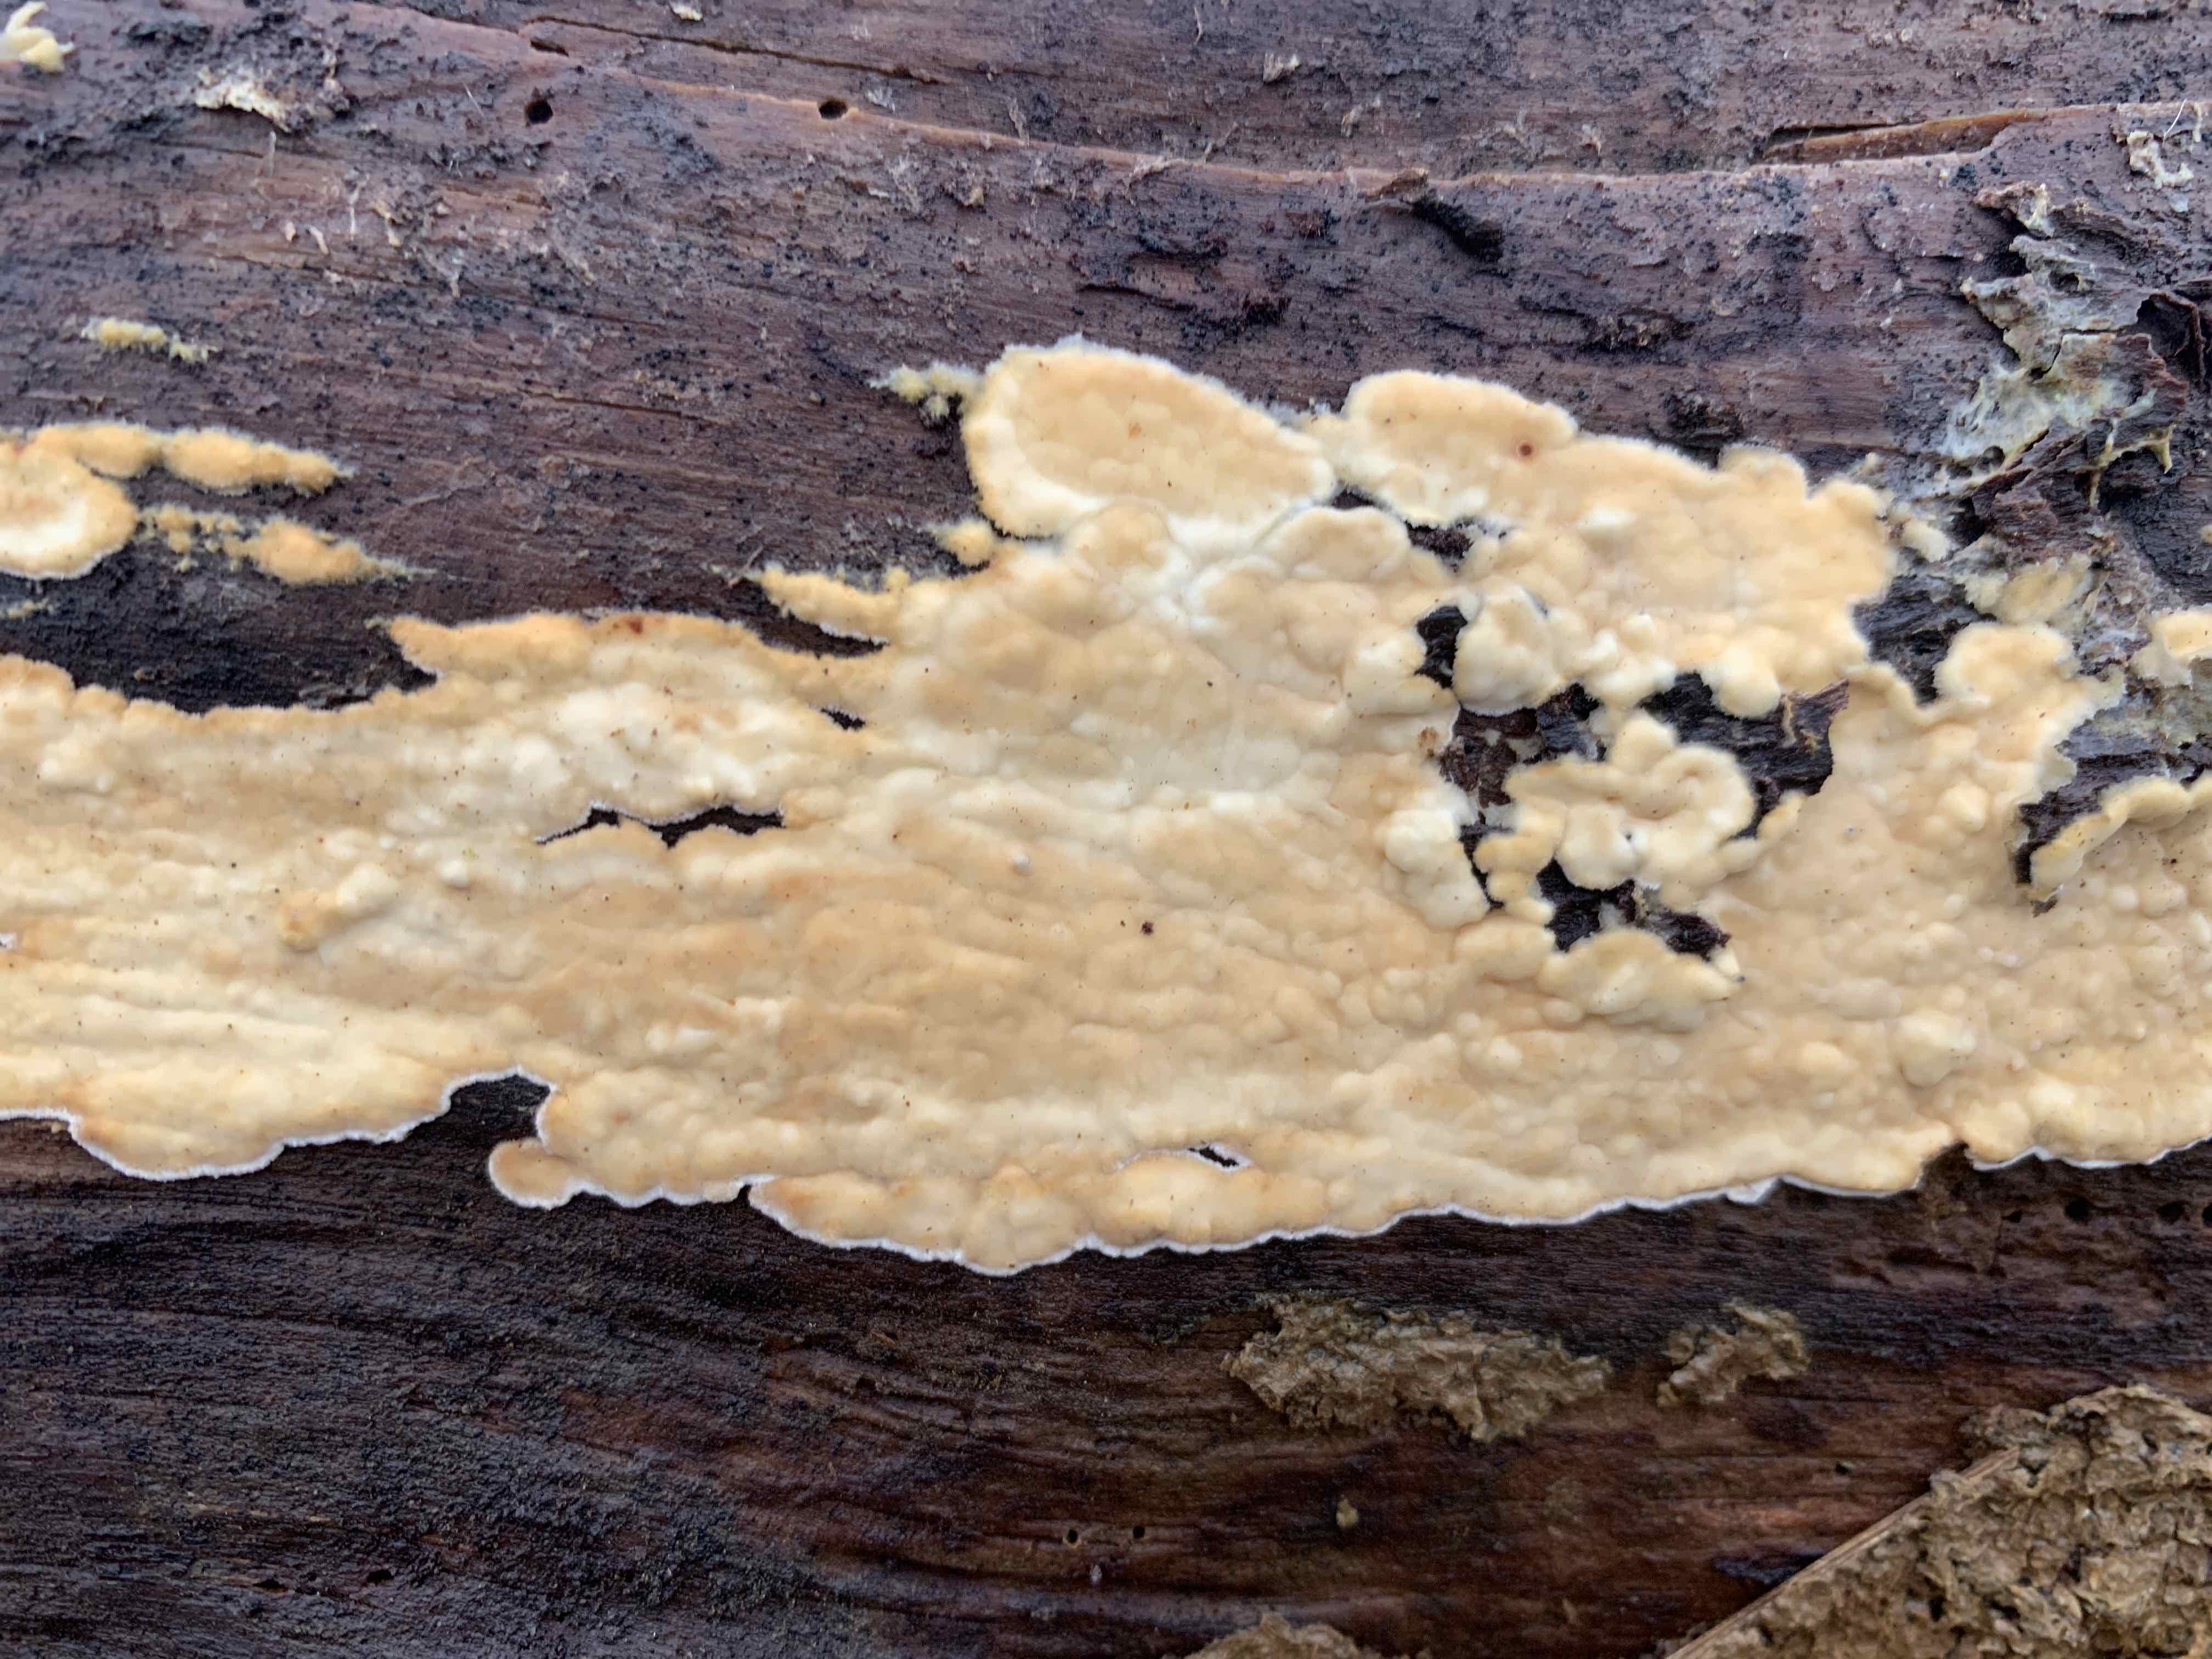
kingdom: Fungi
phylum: Basidiomycota
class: Agaricomycetes
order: Polyporales
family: Dacryobolaceae
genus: Dacryobolus
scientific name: Dacryobolus karstenii
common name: glat vulkanskorpe
